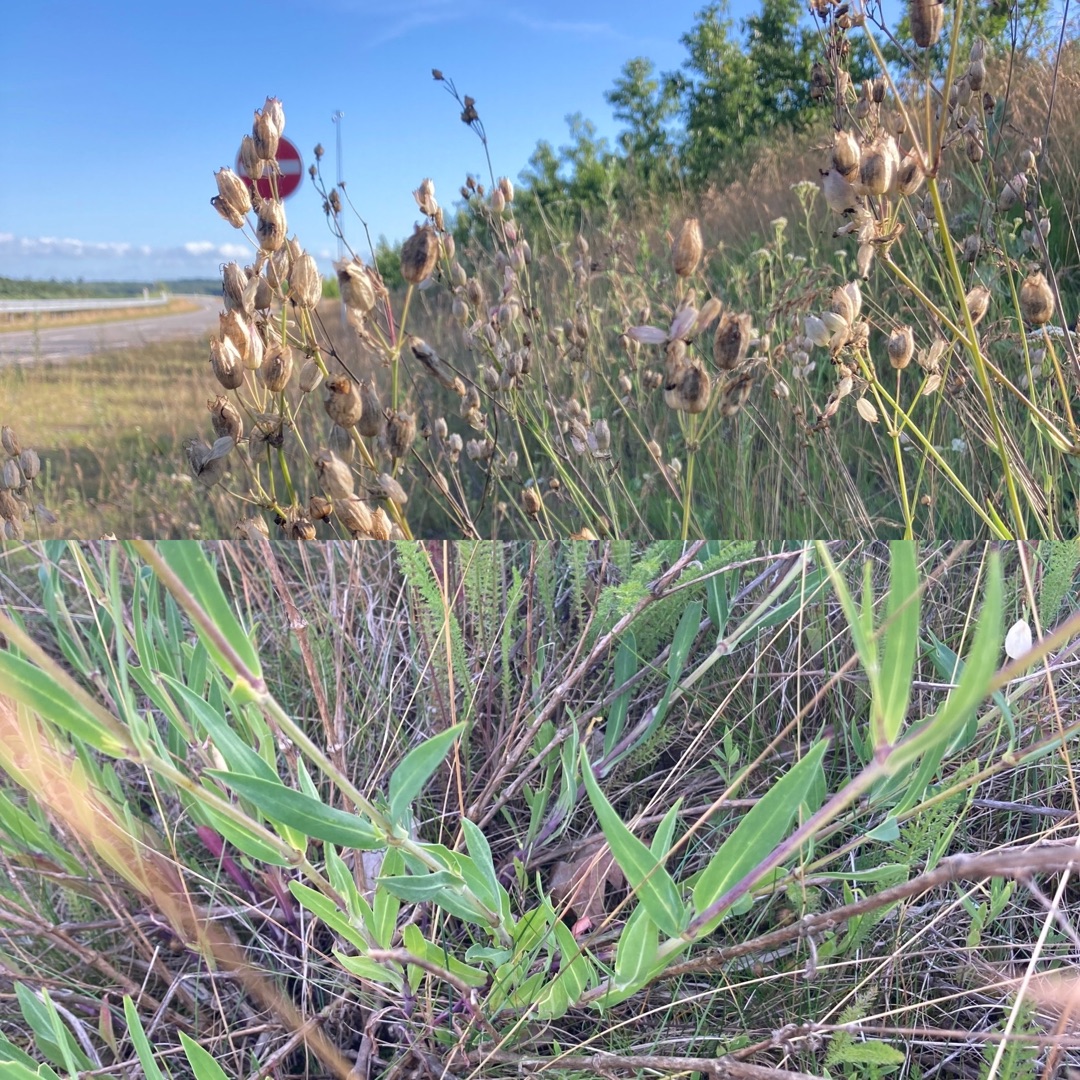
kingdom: Plantae
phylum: Tracheophyta
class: Magnoliopsida
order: Caryophyllales
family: Caryophyllaceae
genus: Silene
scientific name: Silene vulgaris
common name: Blæresmælde
